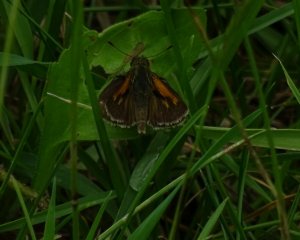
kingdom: Animalia
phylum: Arthropoda
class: Insecta
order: Lepidoptera
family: Hesperiidae
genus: Polites
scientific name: Polites themistocles
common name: Tawny-edged Skipper
